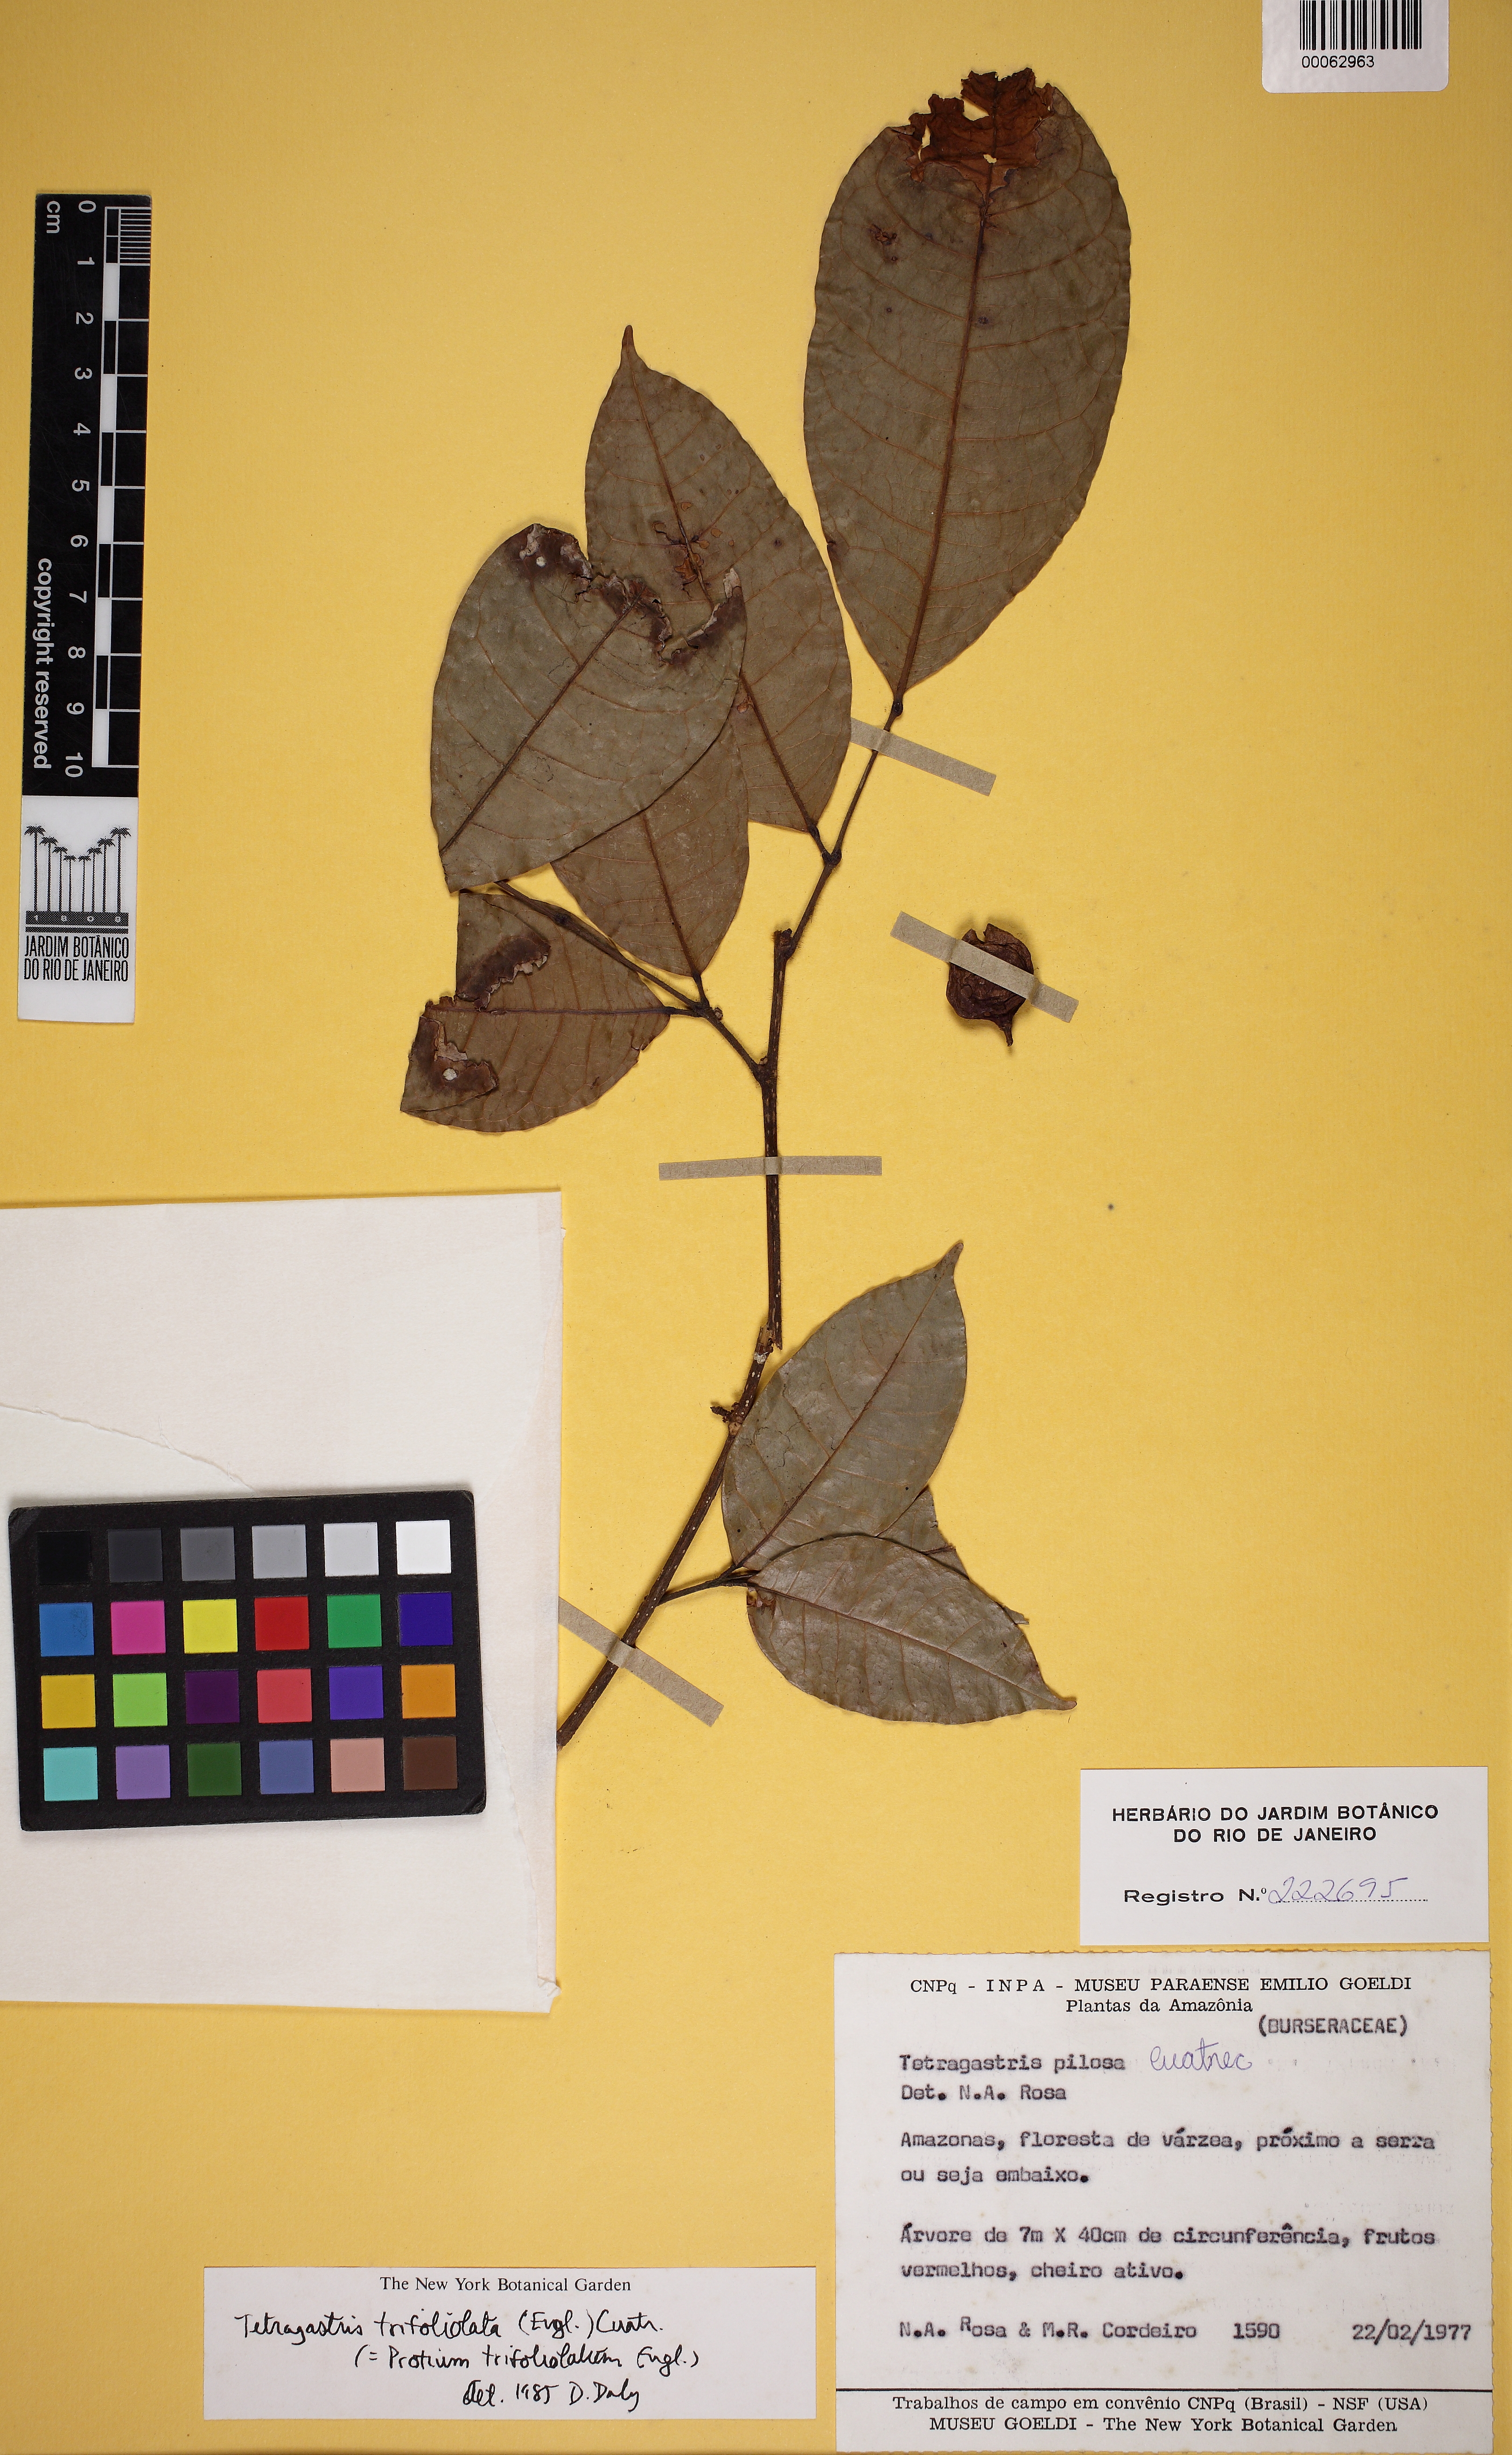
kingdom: Plantae
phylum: Tracheophyta
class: Magnoliopsida
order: Sapindales
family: Burseraceae
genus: Protium
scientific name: Protium trifoliolatum
